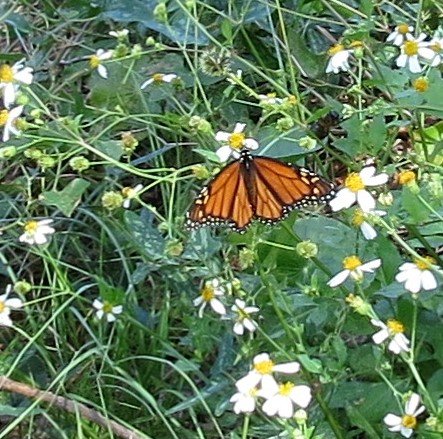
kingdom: Animalia
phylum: Arthropoda
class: Insecta
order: Lepidoptera
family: Nymphalidae
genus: Danaus
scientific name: Danaus plexippus
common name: Monarch
